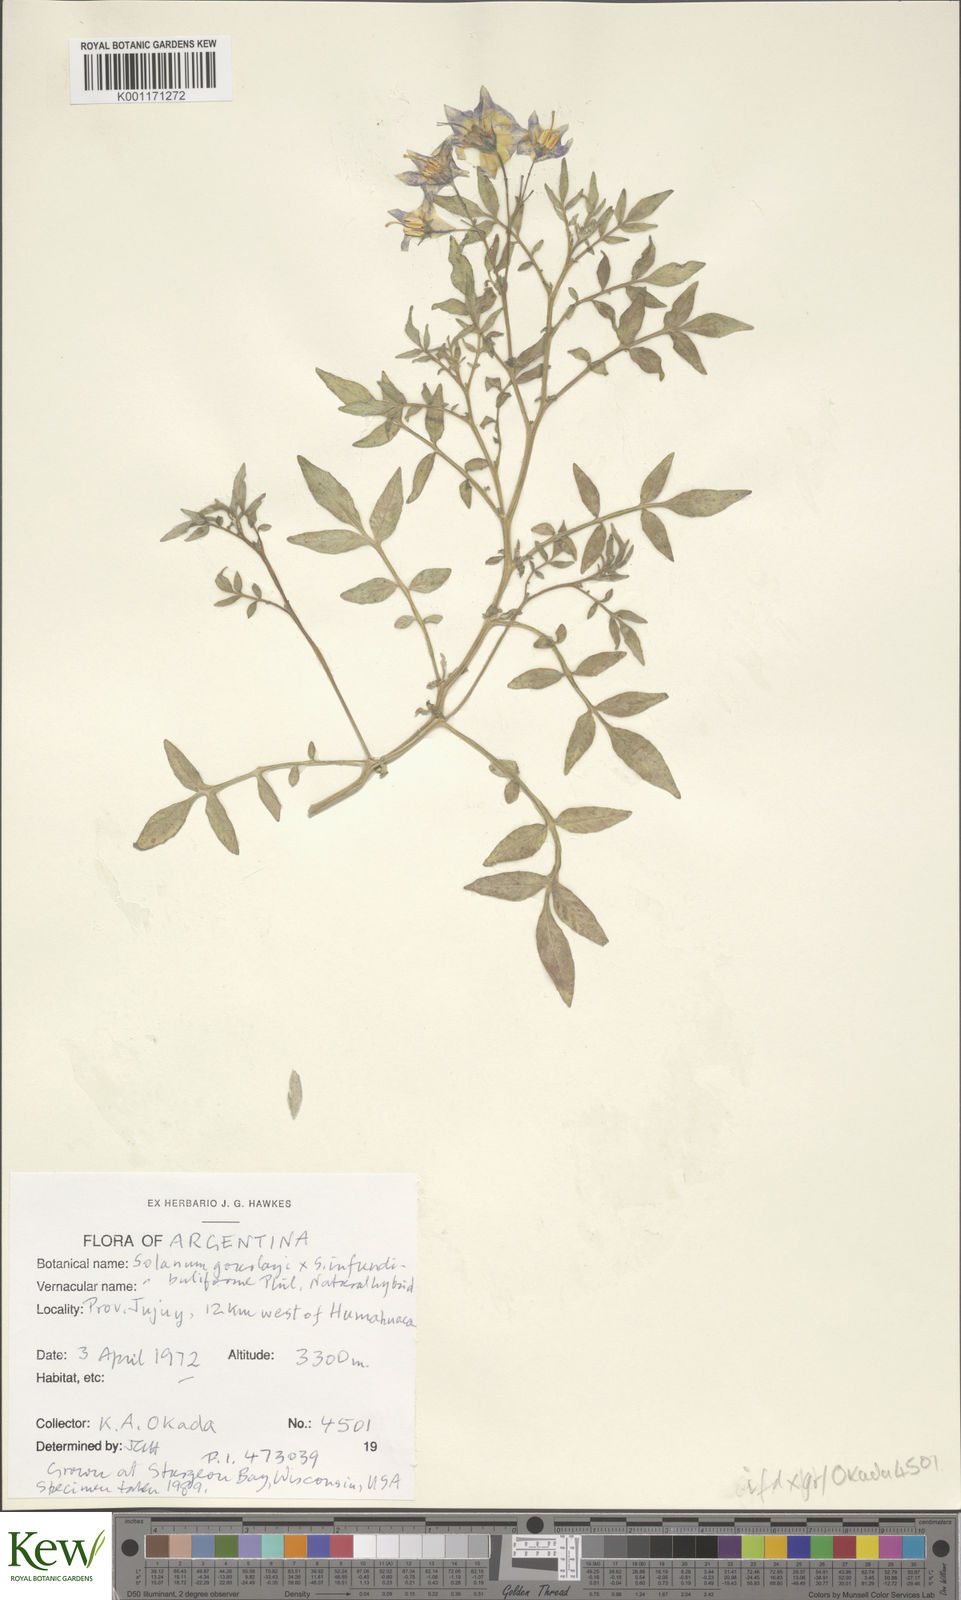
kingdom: Plantae
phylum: Tracheophyta
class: Magnoliopsida
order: Solanales
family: Solanaceae
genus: Solanum
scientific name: Solanum infundibuliforme
